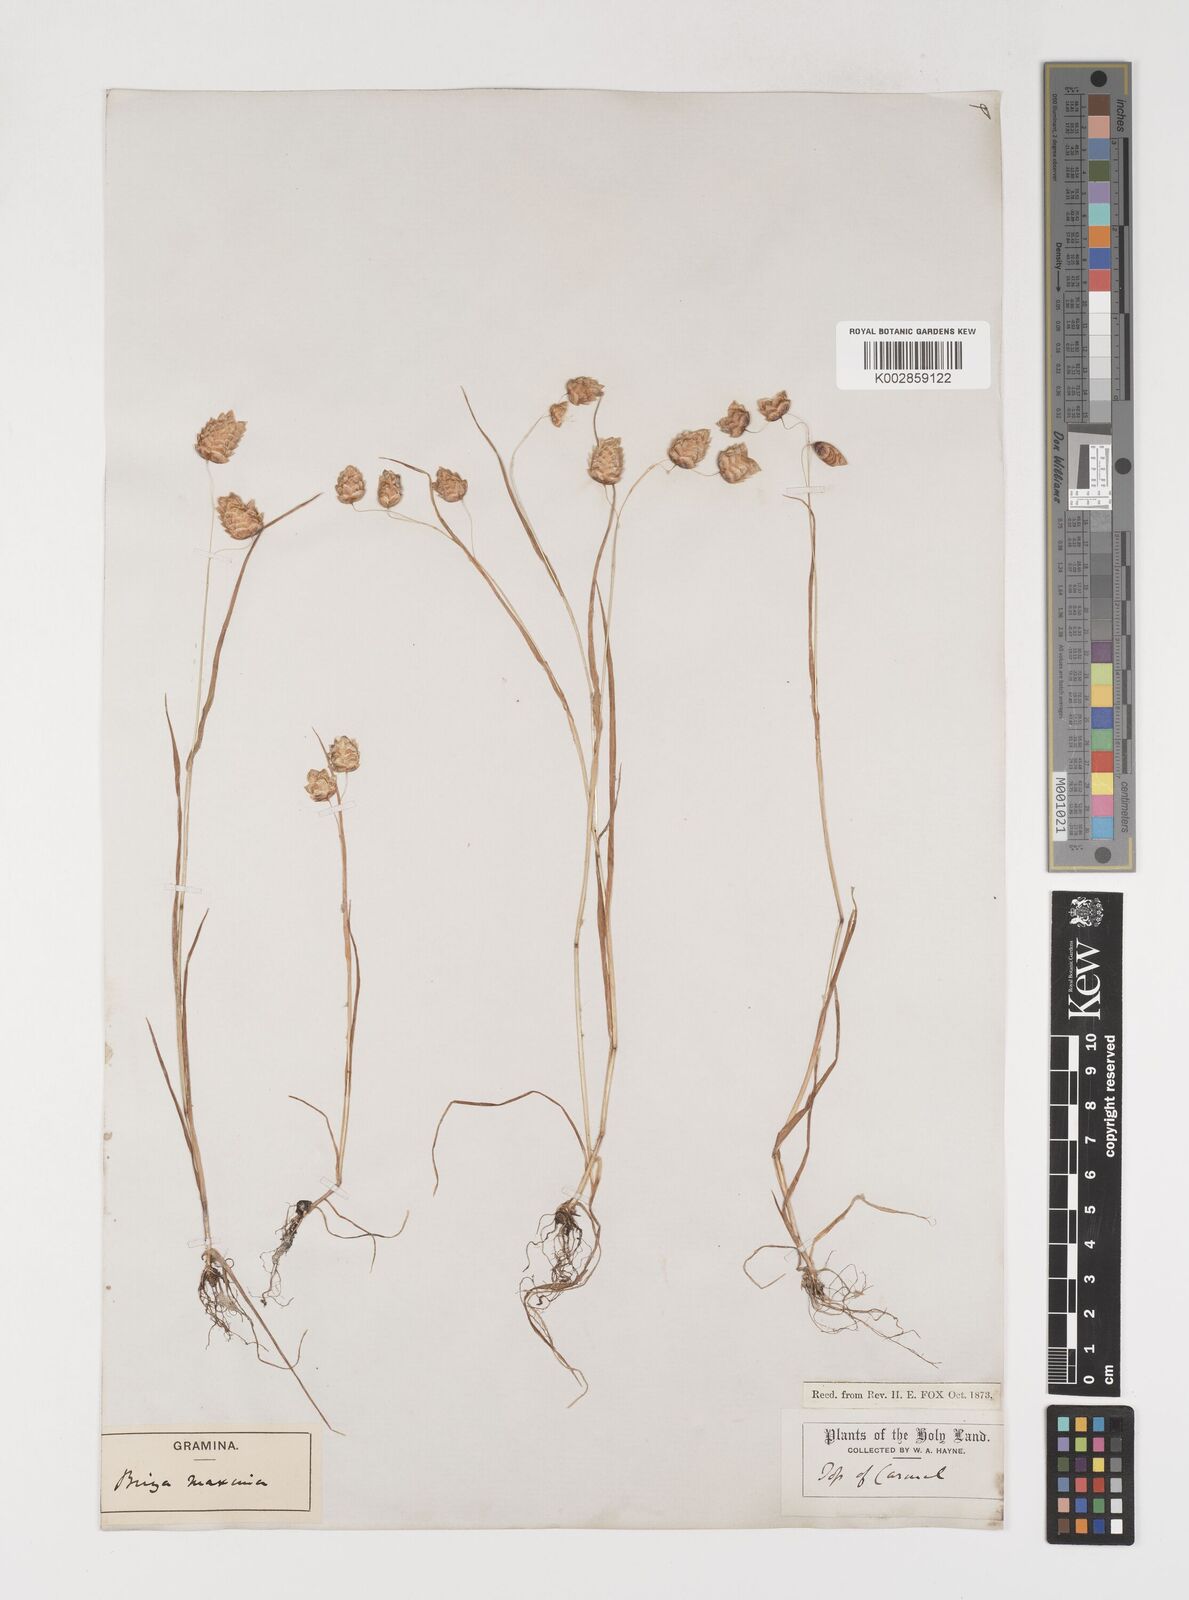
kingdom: Plantae
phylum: Tracheophyta
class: Liliopsida
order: Poales
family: Poaceae
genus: Briza
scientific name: Briza maxima
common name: Big quakinggrass
